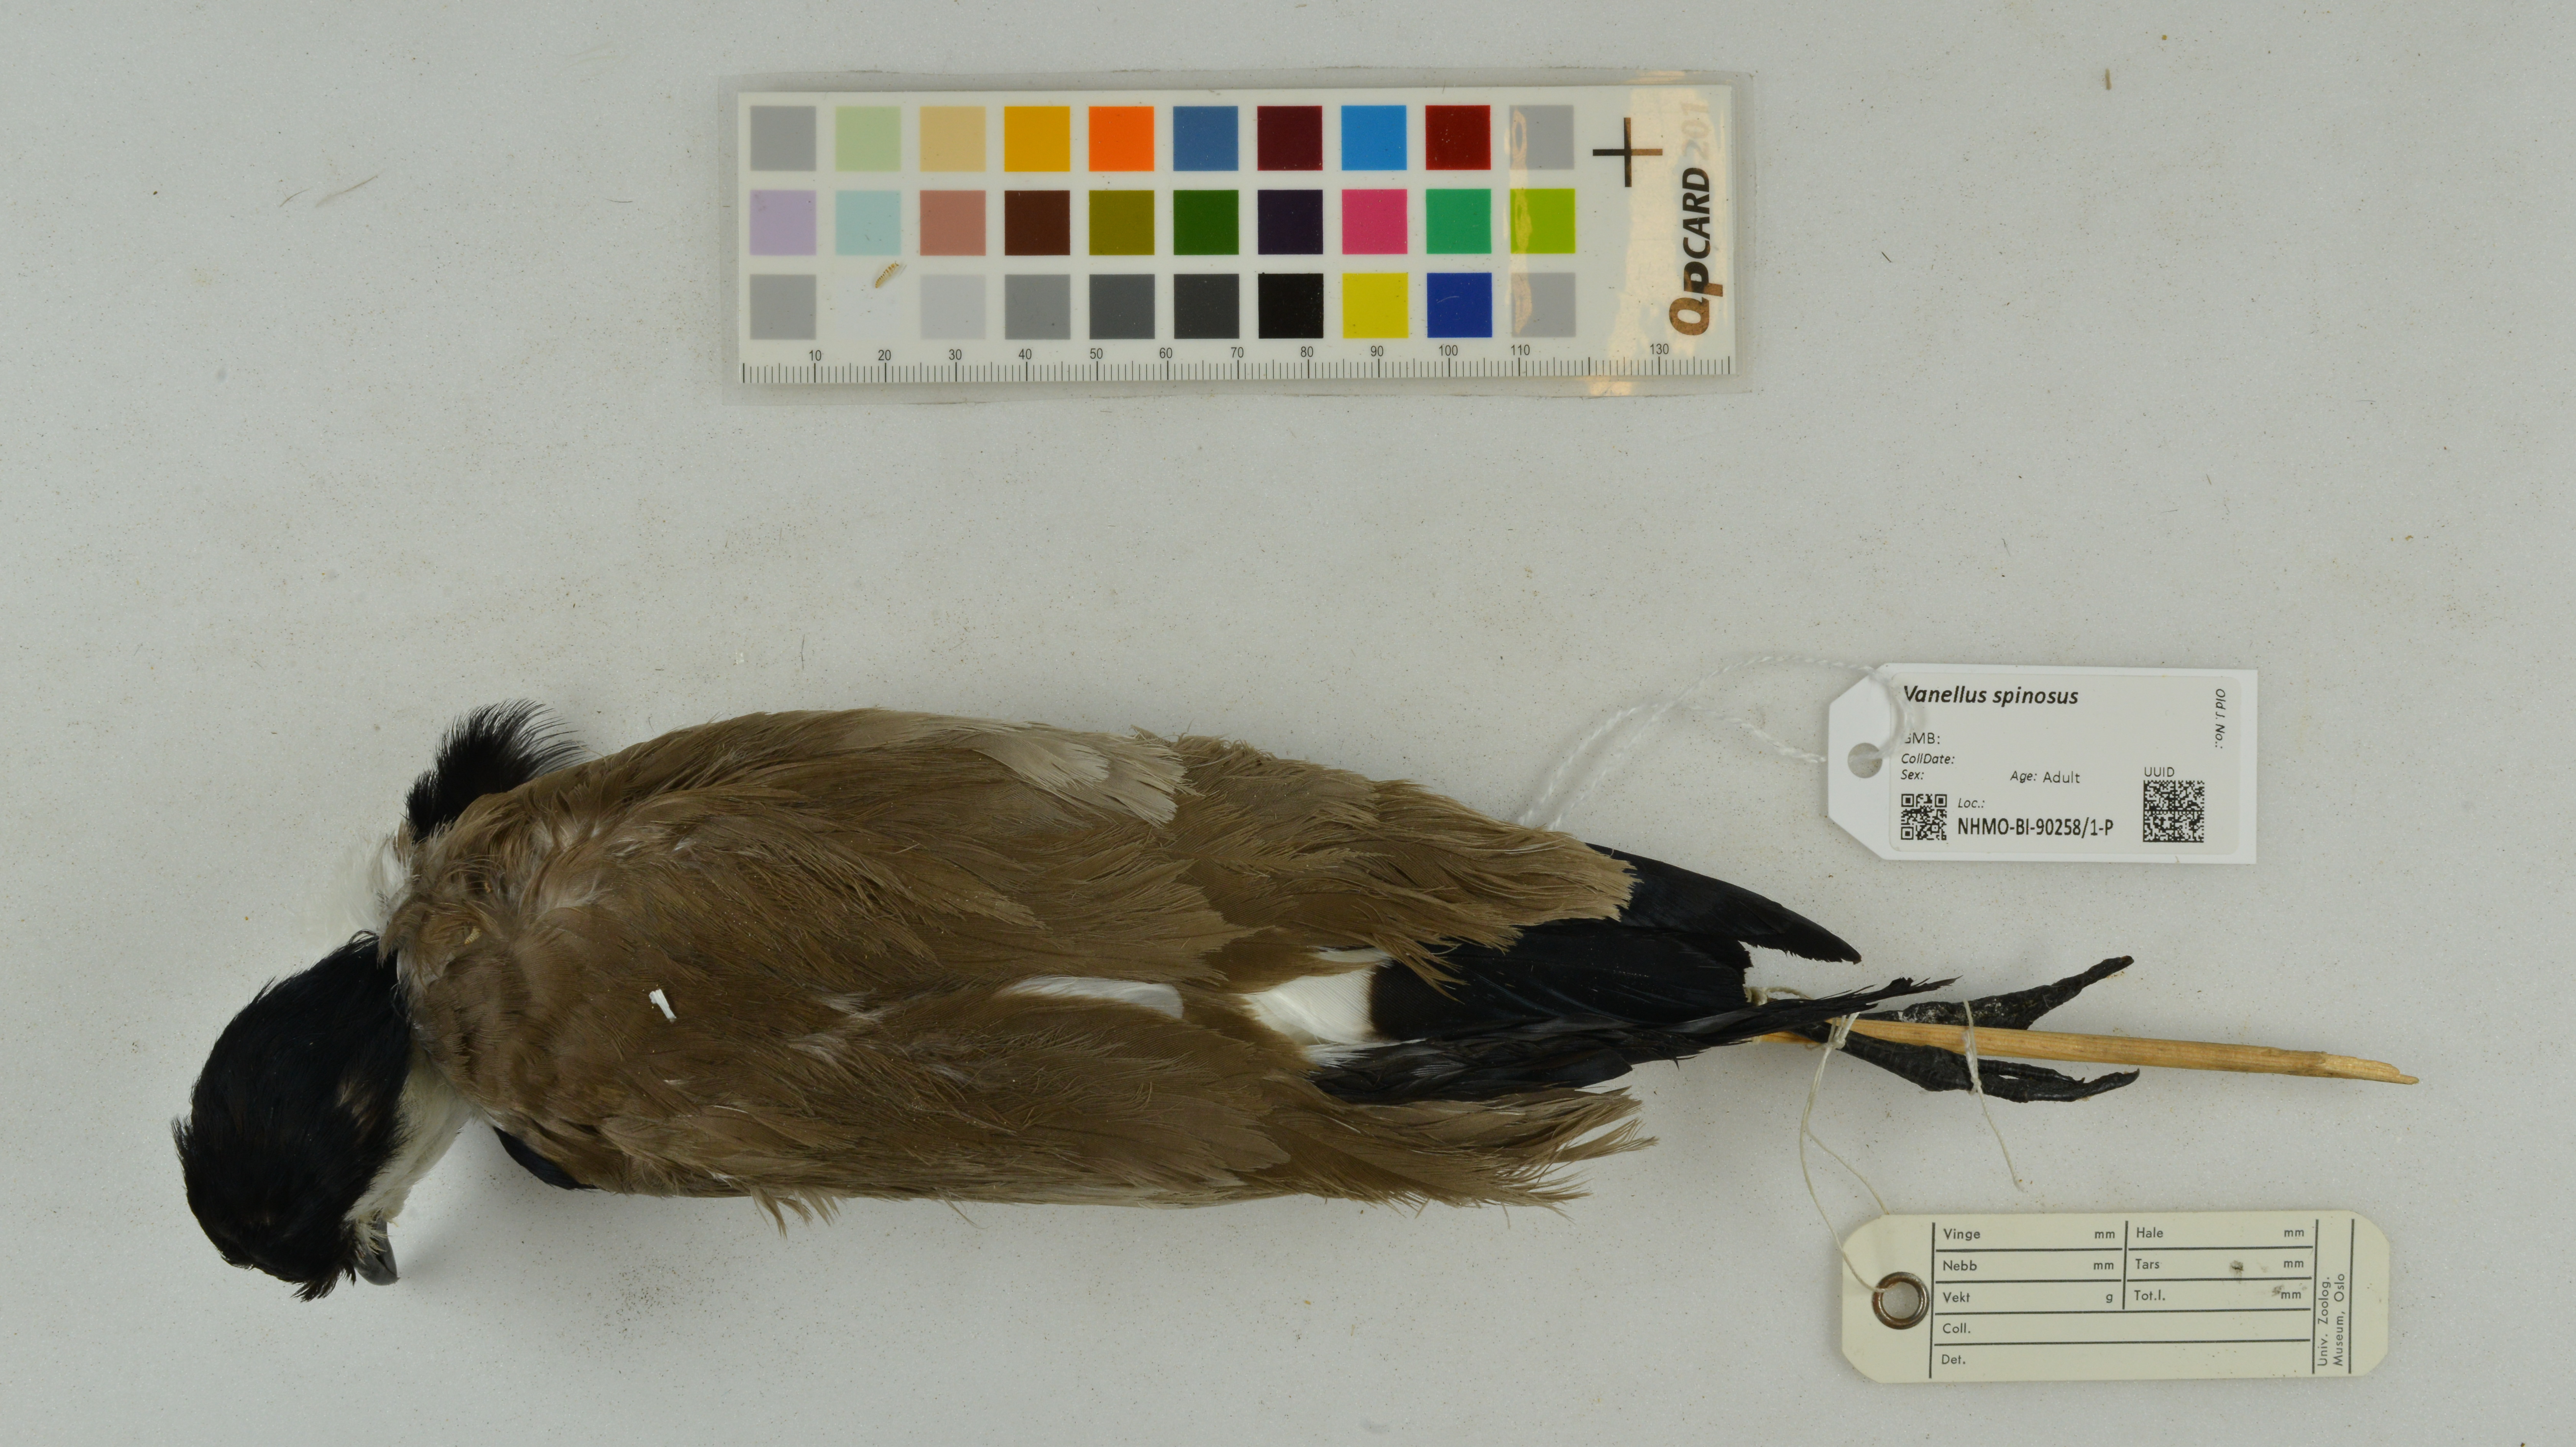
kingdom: Animalia
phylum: Chordata
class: Aves
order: Charadriiformes
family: Charadriidae
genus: Vanellus
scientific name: Vanellus spinosus
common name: Spur-winged lapwing
